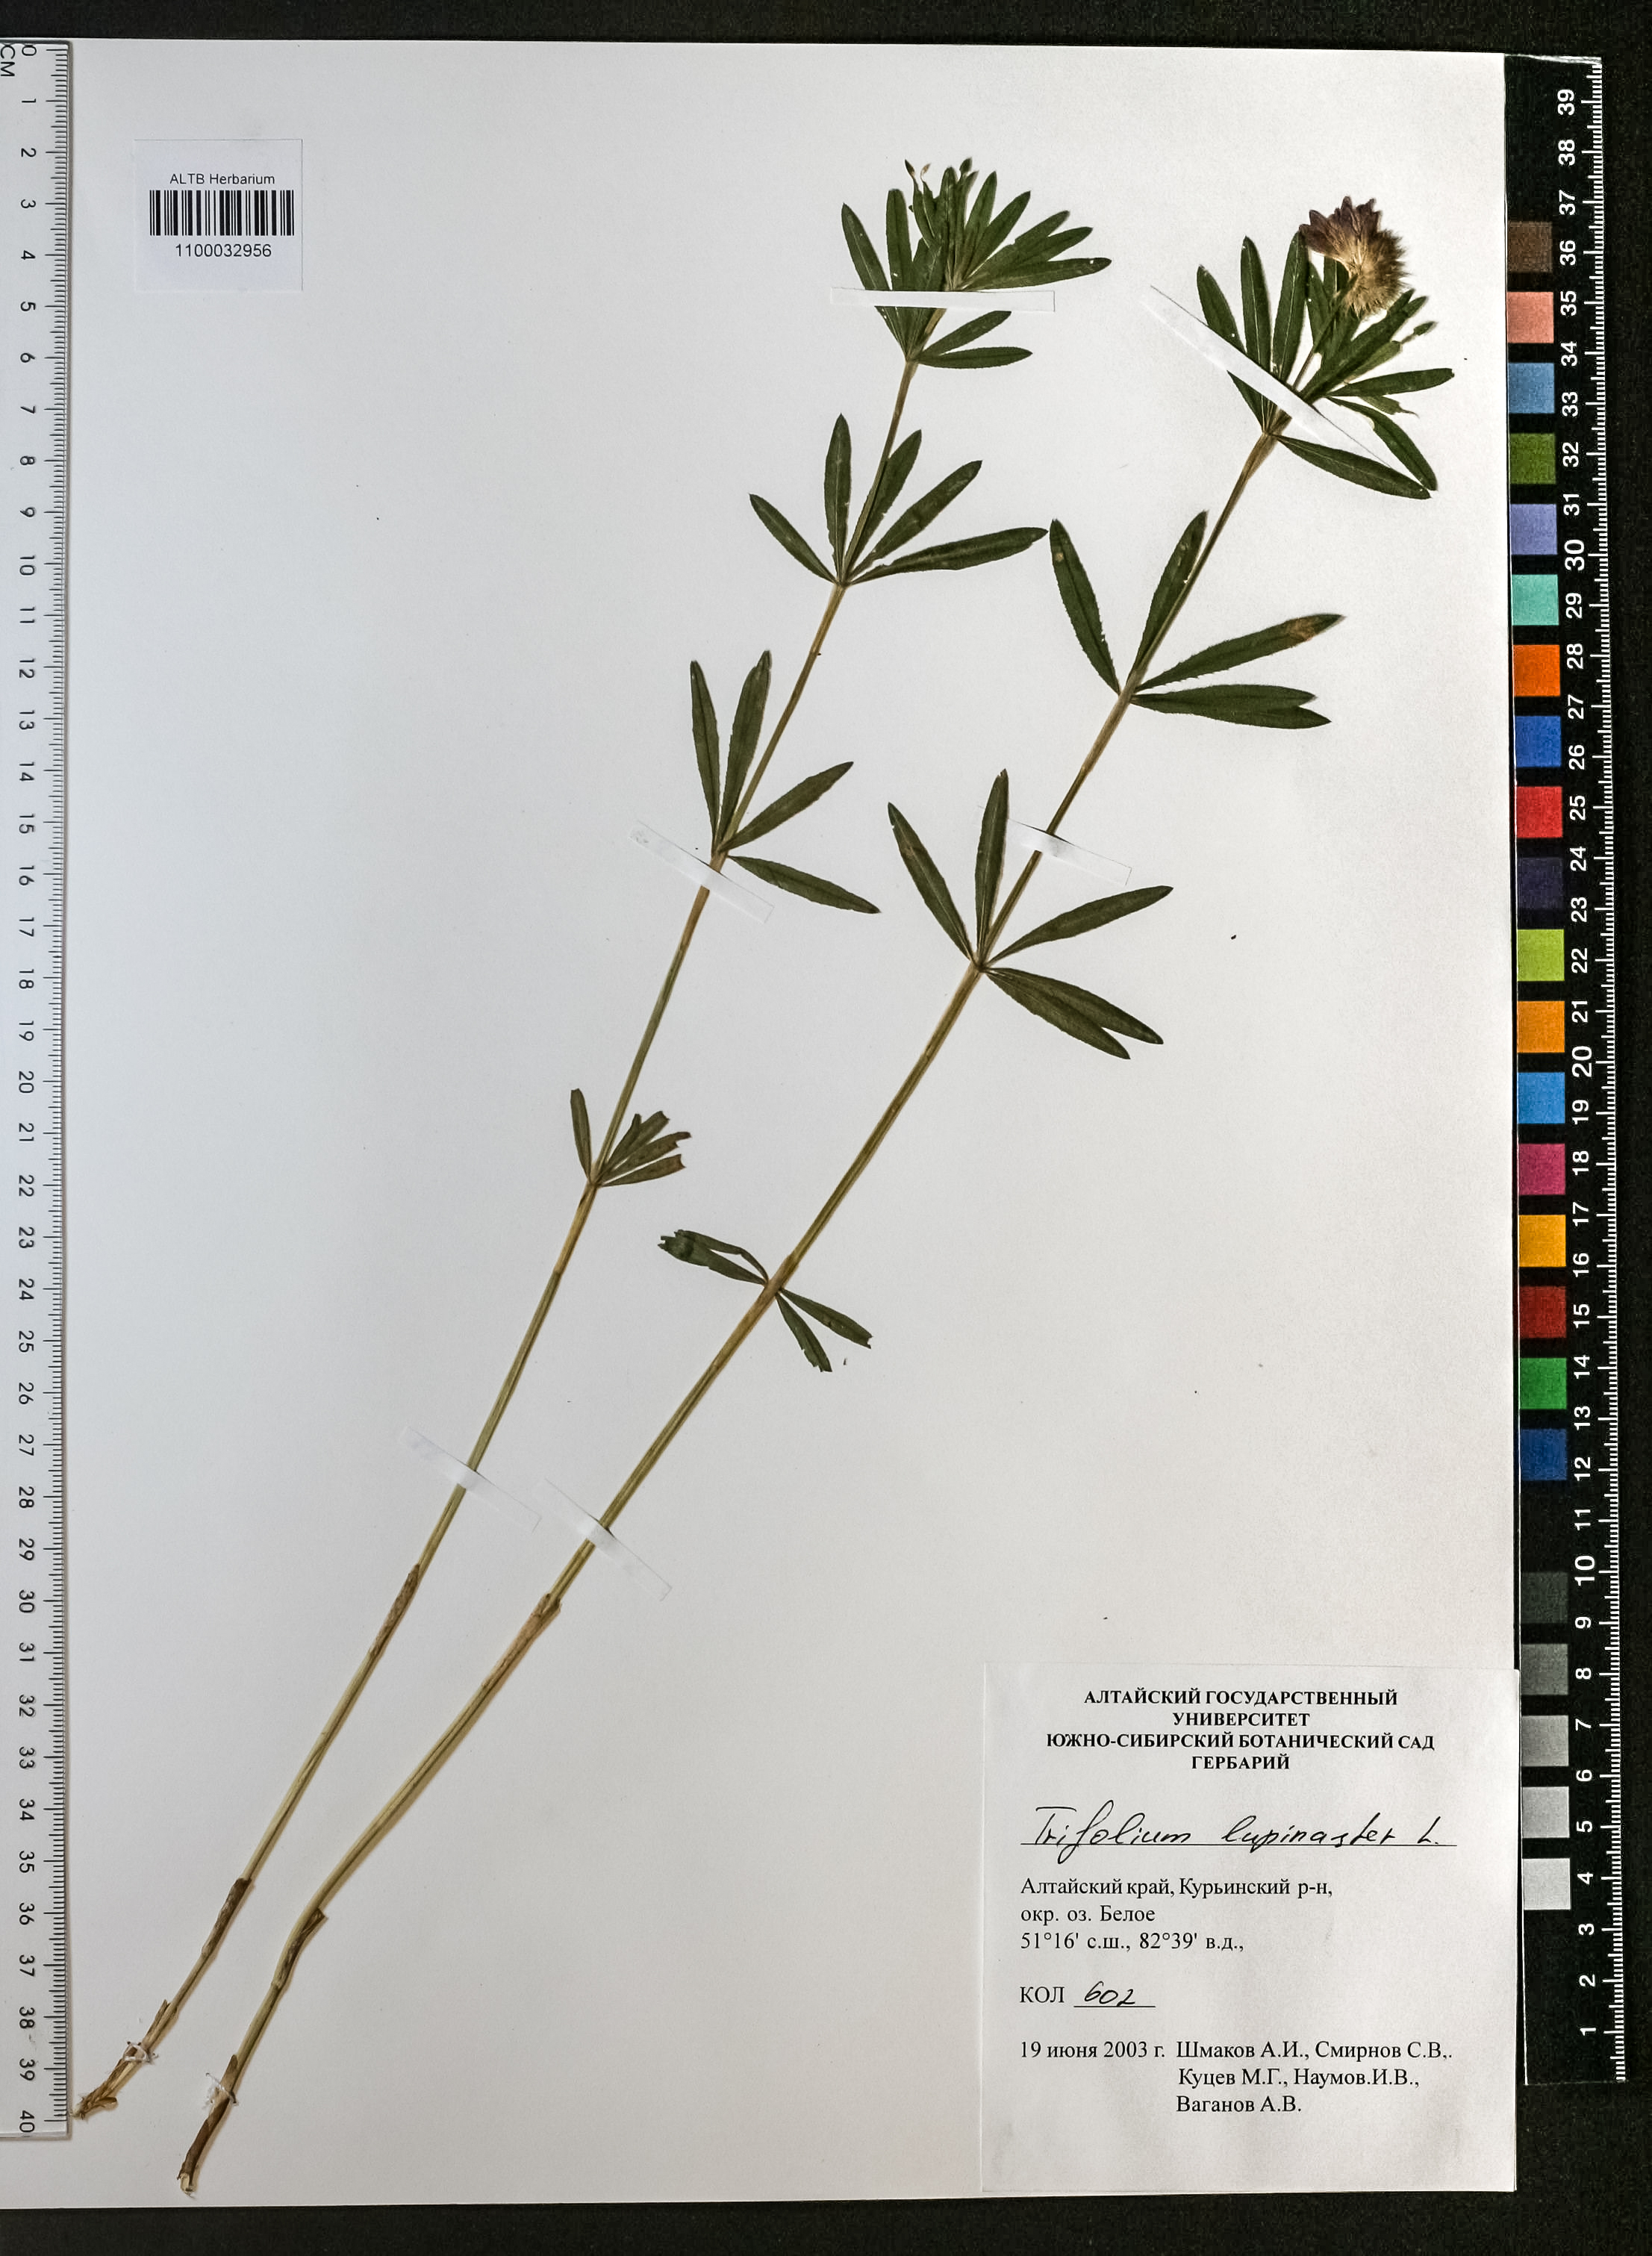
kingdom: Plantae
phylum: Tracheophyta
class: Magnoliopsida
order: Fabales
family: Fabaceae
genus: Trifolium
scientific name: Trifolium lupinaster
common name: Lupine clover
